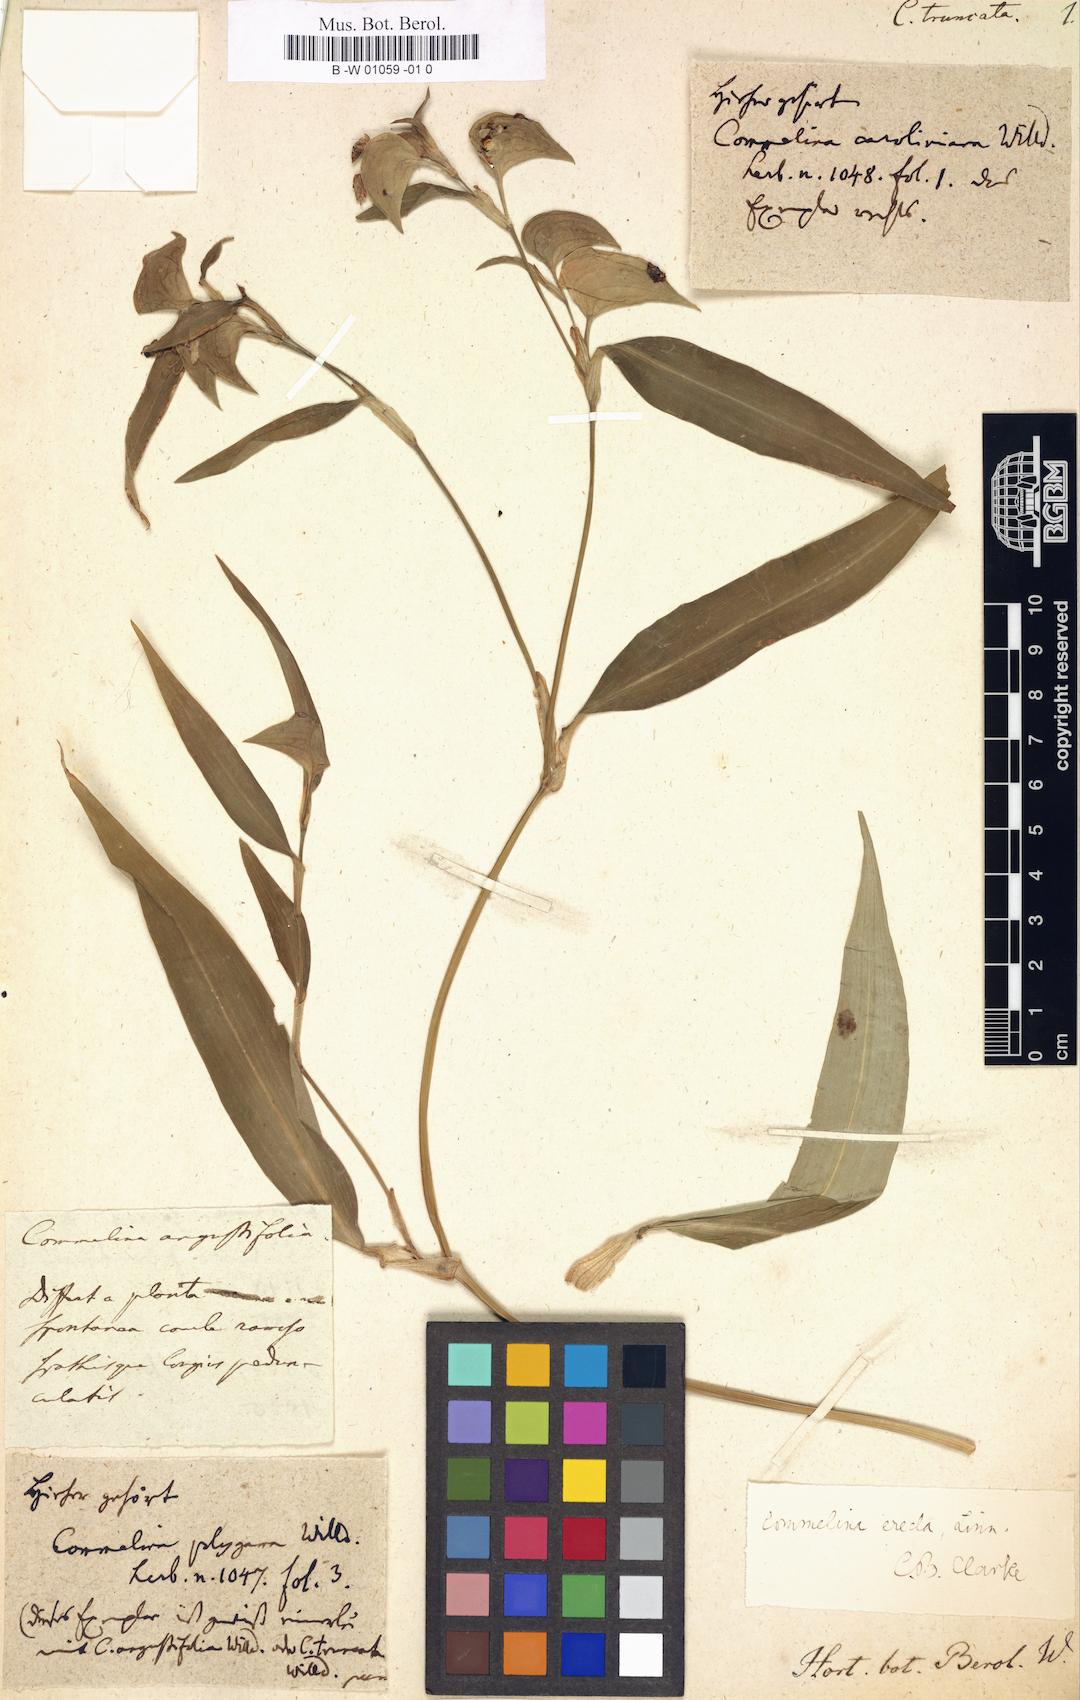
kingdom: Plantae
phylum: Tracheophyta
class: Liliopsida
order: Commelinales
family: Commelinaceae
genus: Commelina
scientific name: Commelina virginica
